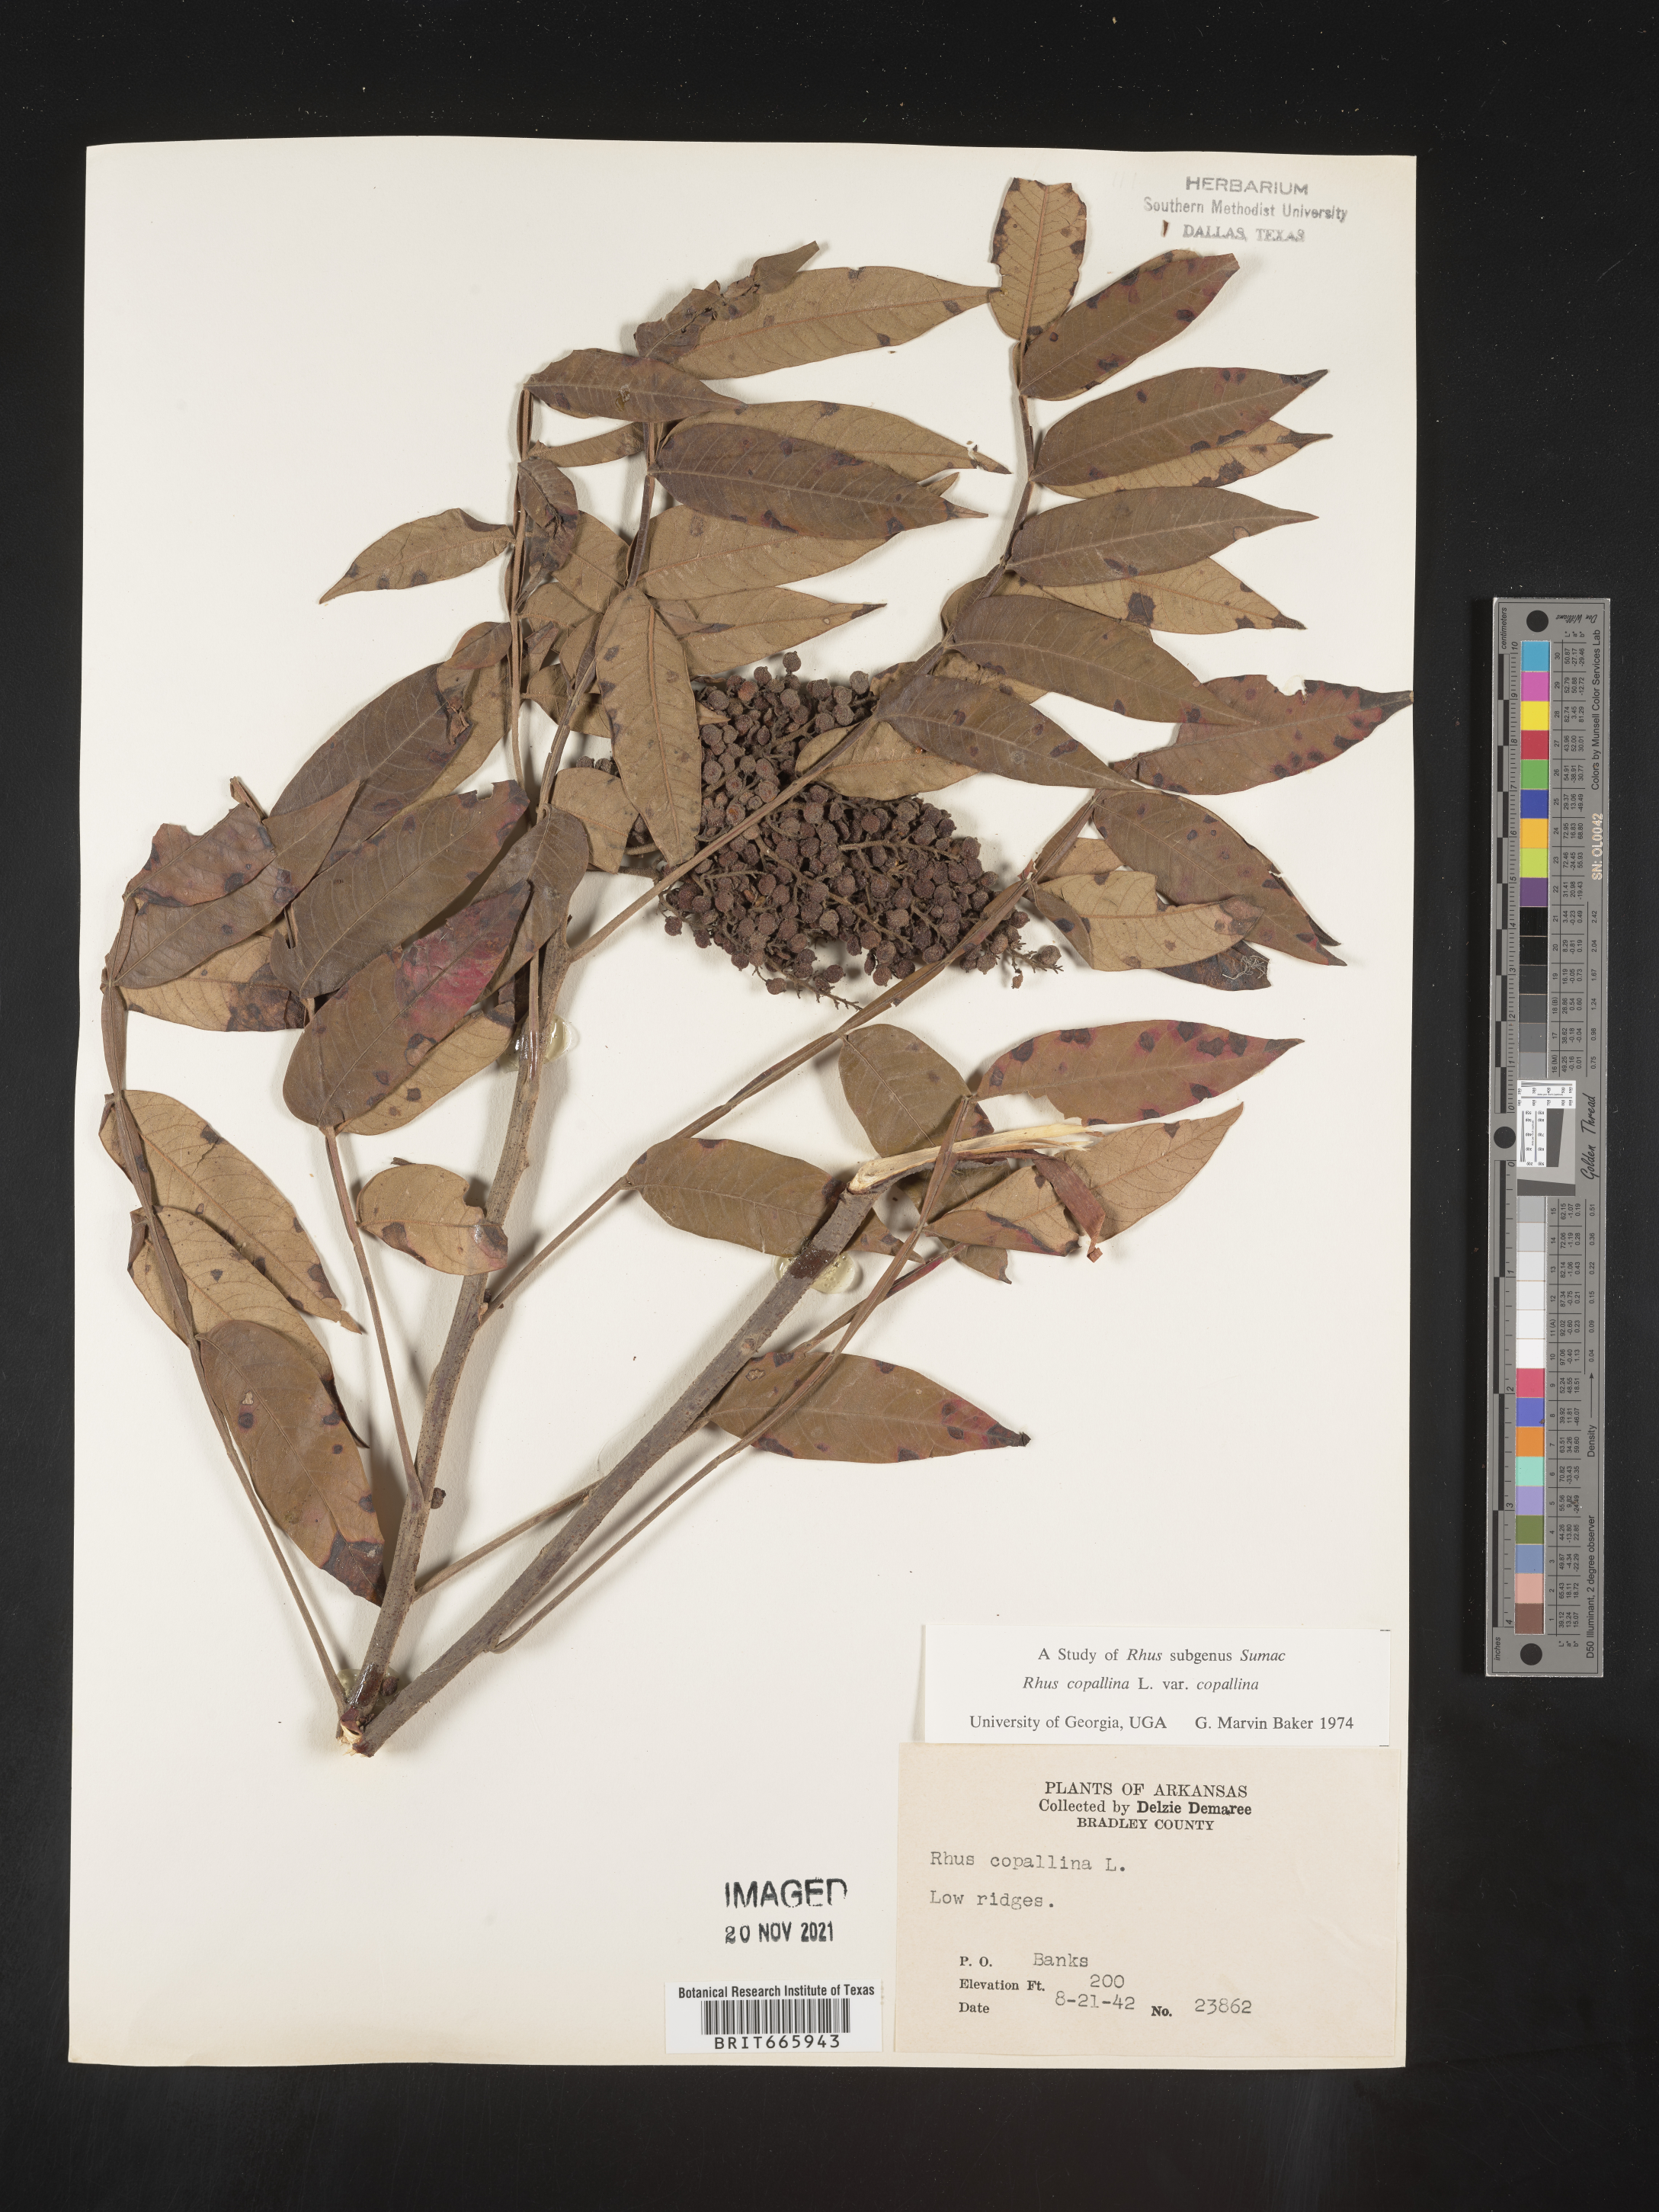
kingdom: Plantae
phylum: Tracheophyta
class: Magnoliopsida
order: Sapindales
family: Anacardiaceae
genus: Rhus
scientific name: Rhus copallina
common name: Shining sumac
